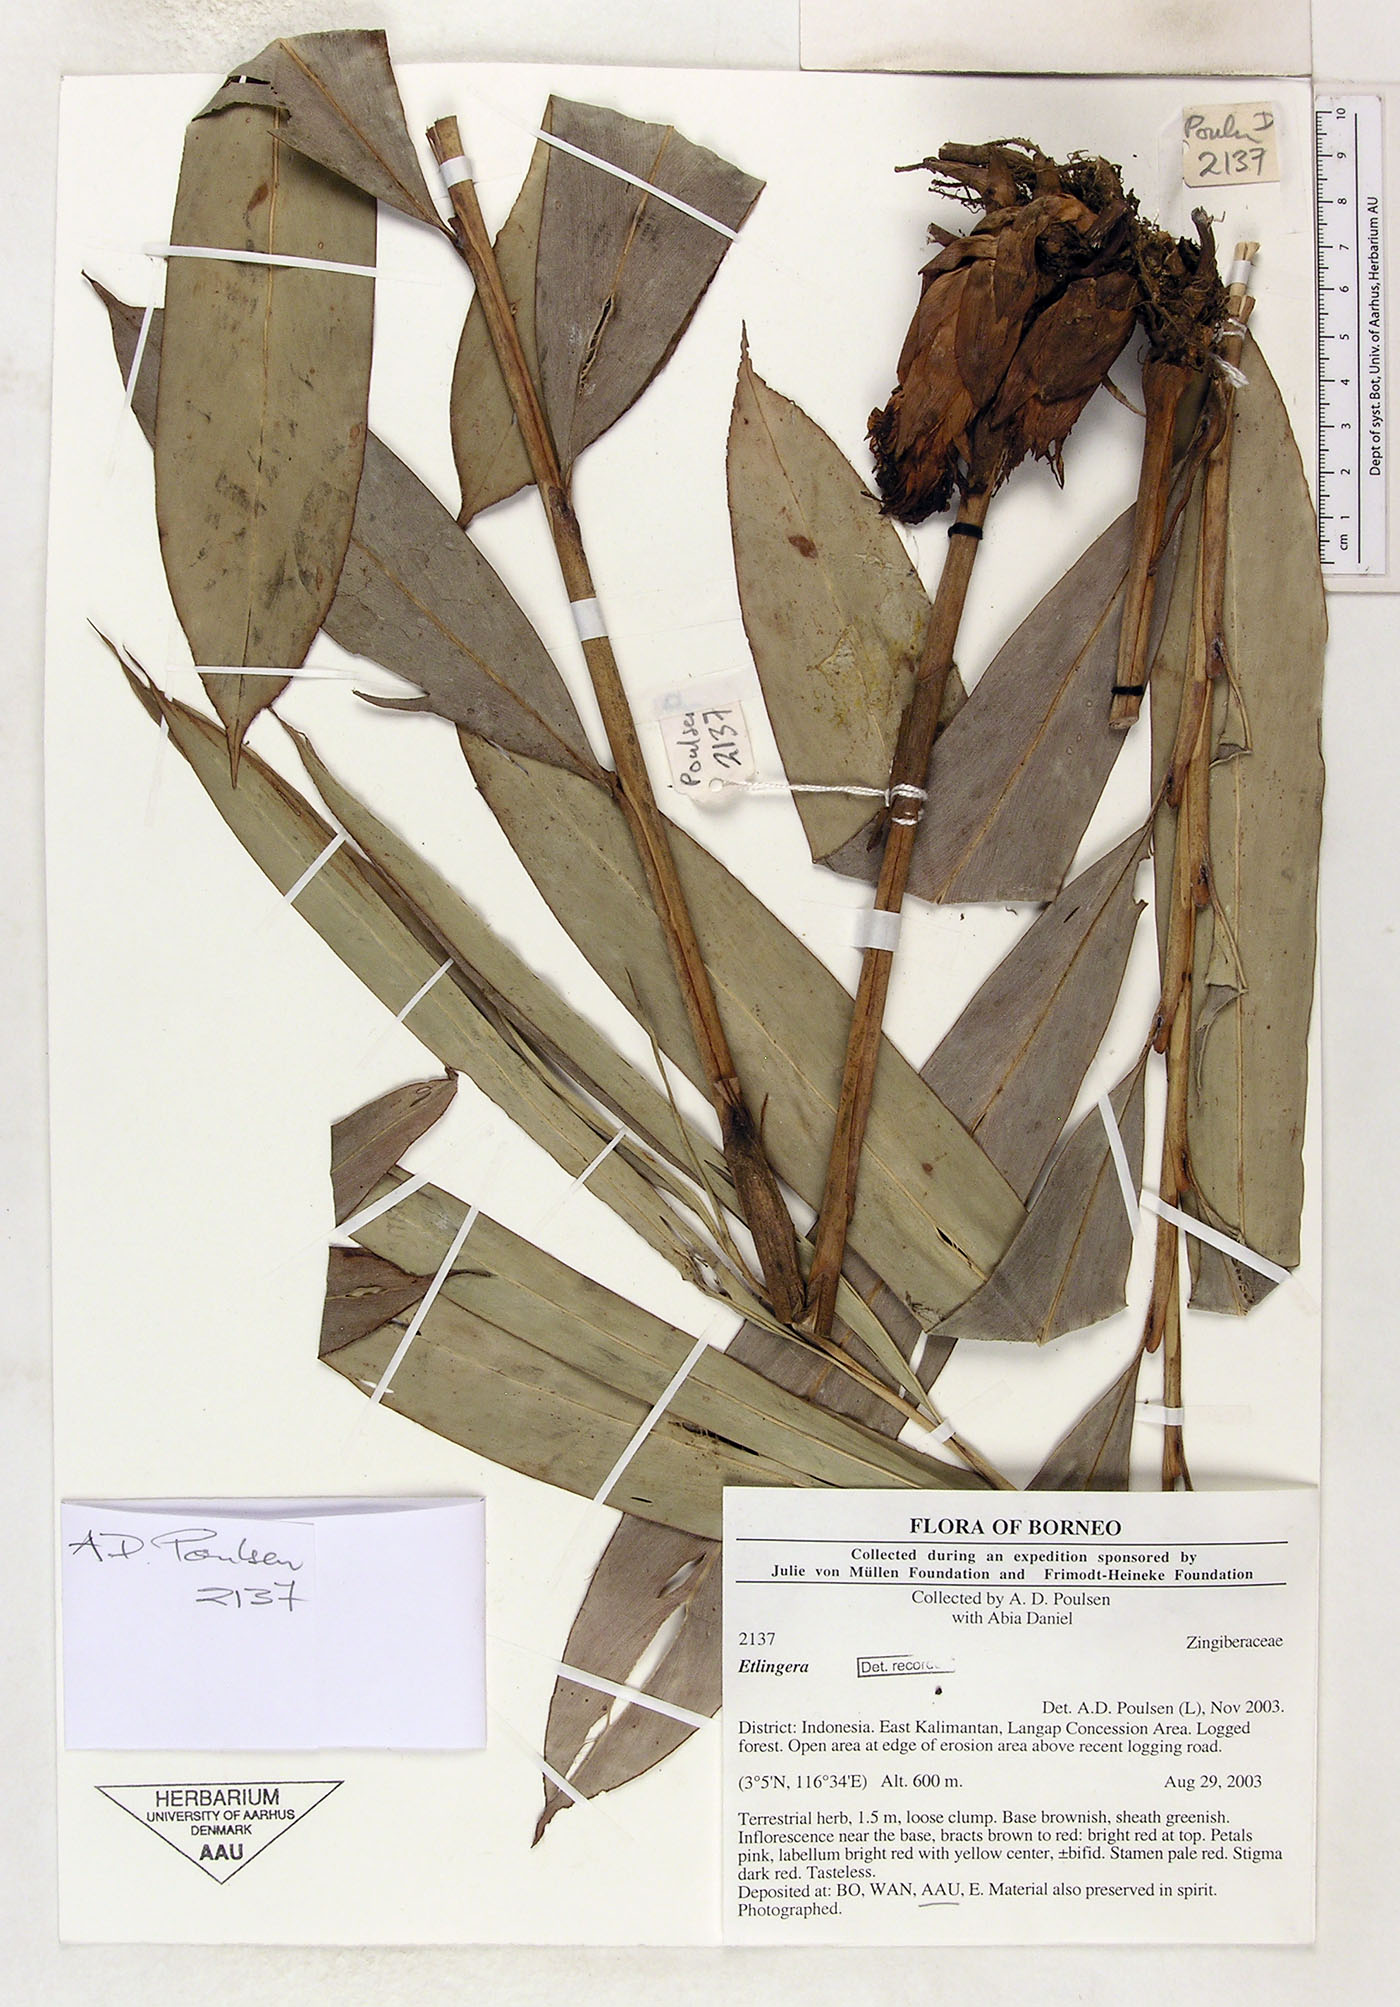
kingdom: Plantae
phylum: Tracheophyta
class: Liliopsida
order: Zingiberales
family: Zingiberaceae
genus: Etlingera
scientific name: Etlingera
